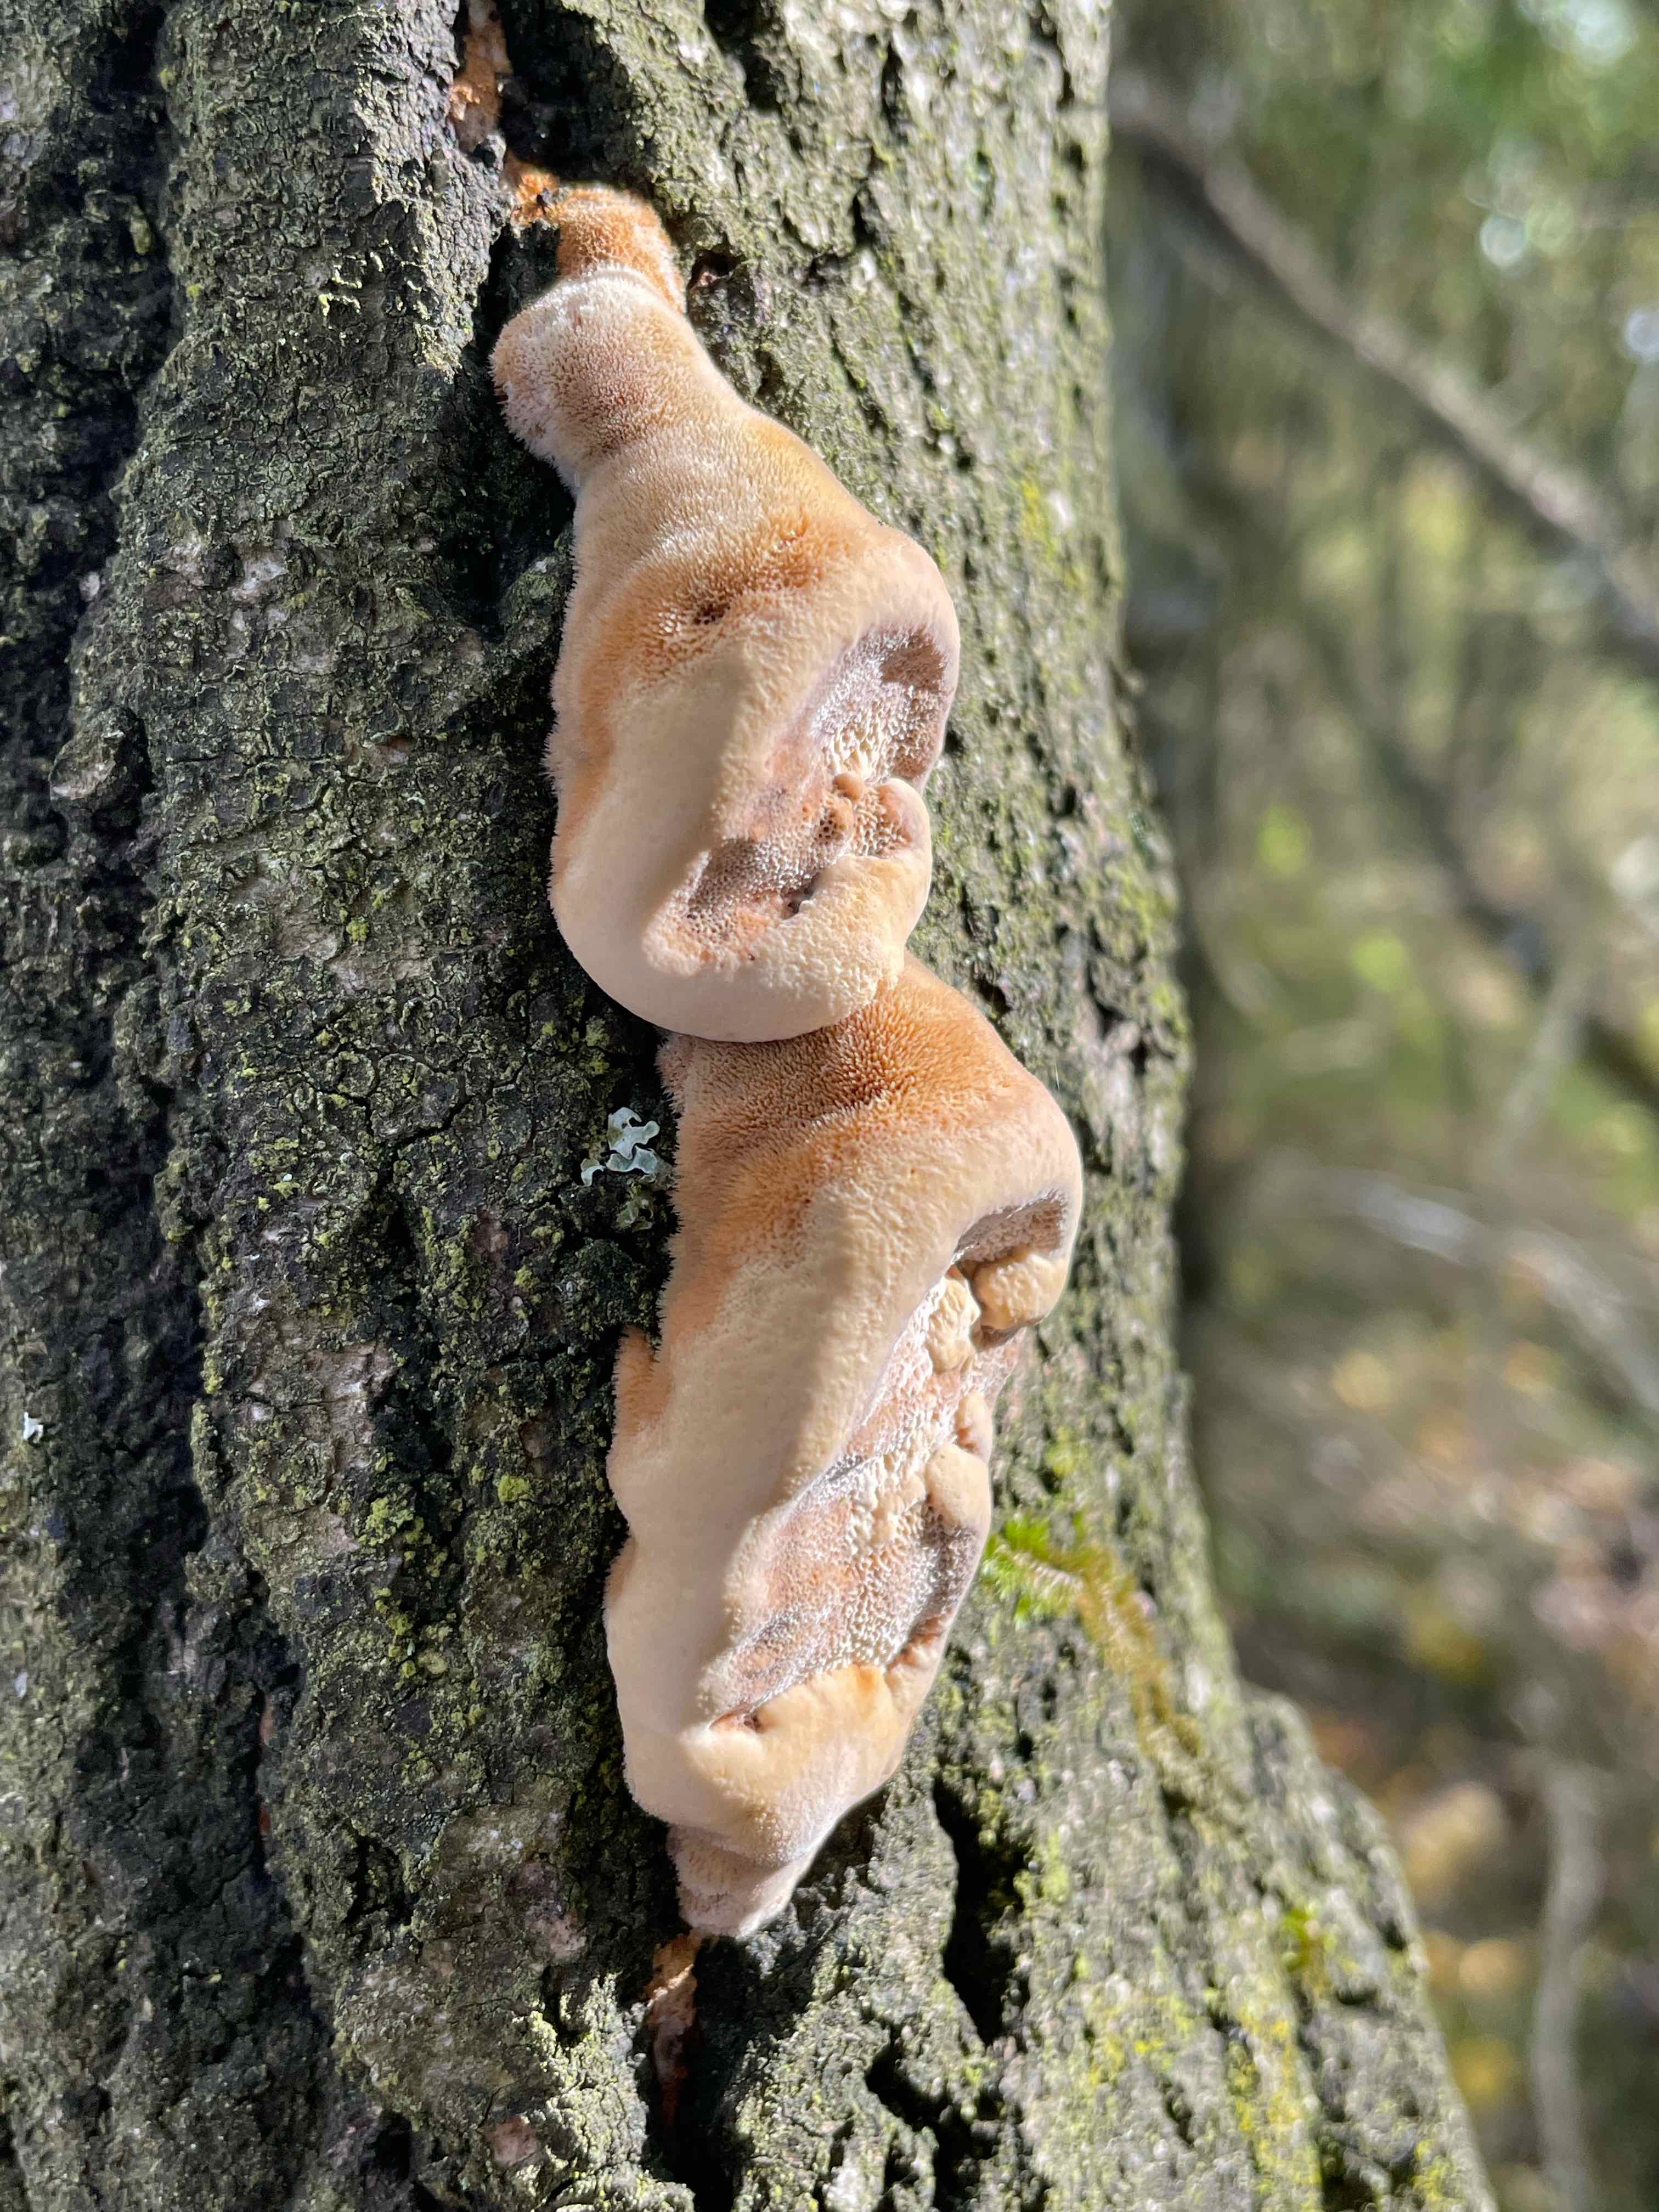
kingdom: Fungi
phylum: Basidiomycota
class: Agaricomycetes
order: Hymenochaetales
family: Hymenochaetaceae
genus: Inocutis
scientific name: Inocutis rheades
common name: ræve-spejlporesvamp
